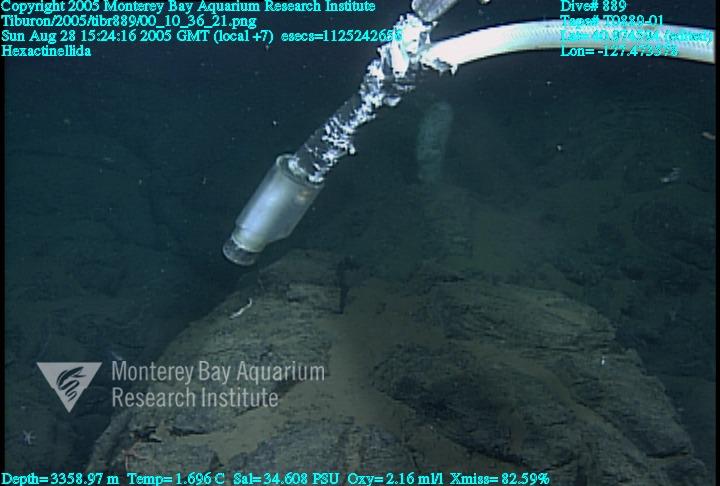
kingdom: Animalia
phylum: Porifera
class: Hexactinellida
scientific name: Hexactinellida
